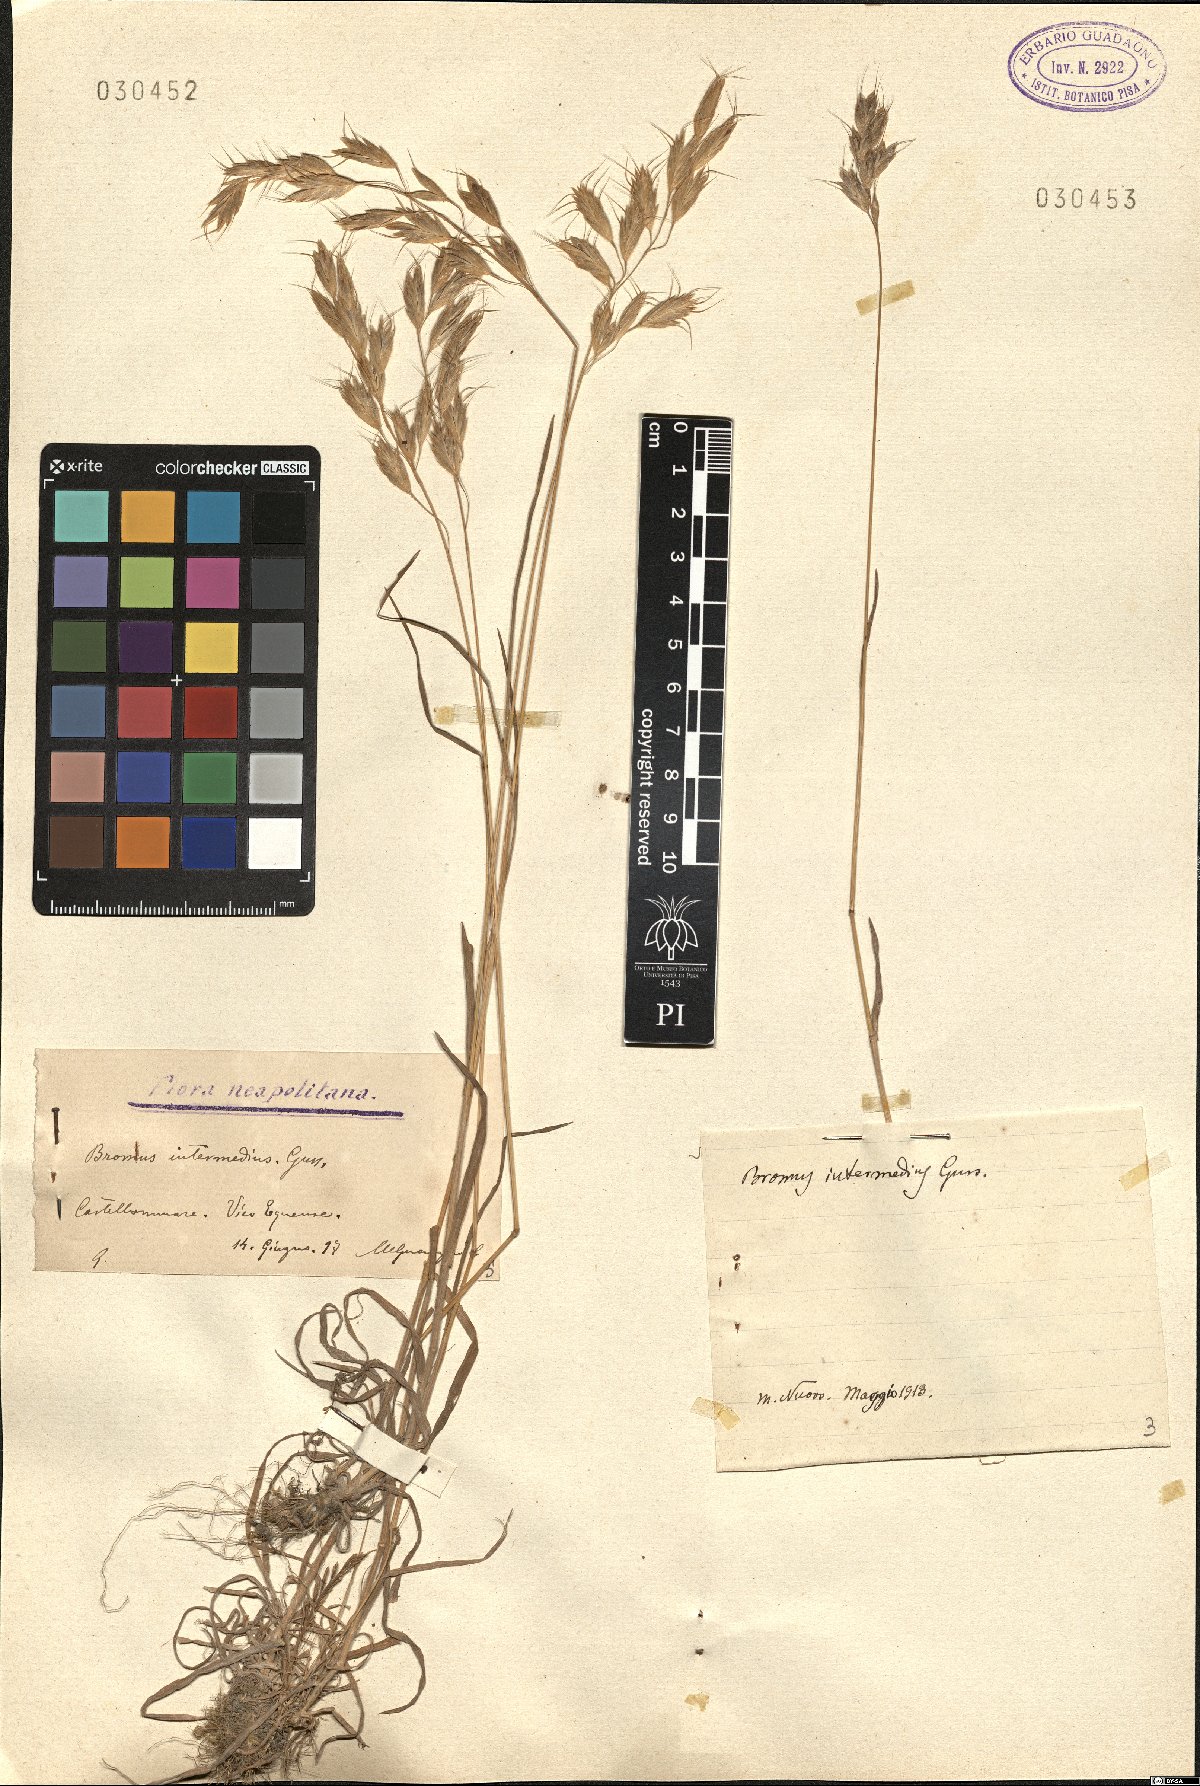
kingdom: Plantae
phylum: Tracheophyta
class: Liliopsida
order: Poales
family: Poaceae
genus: Bromus
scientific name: Bromus intermedius
